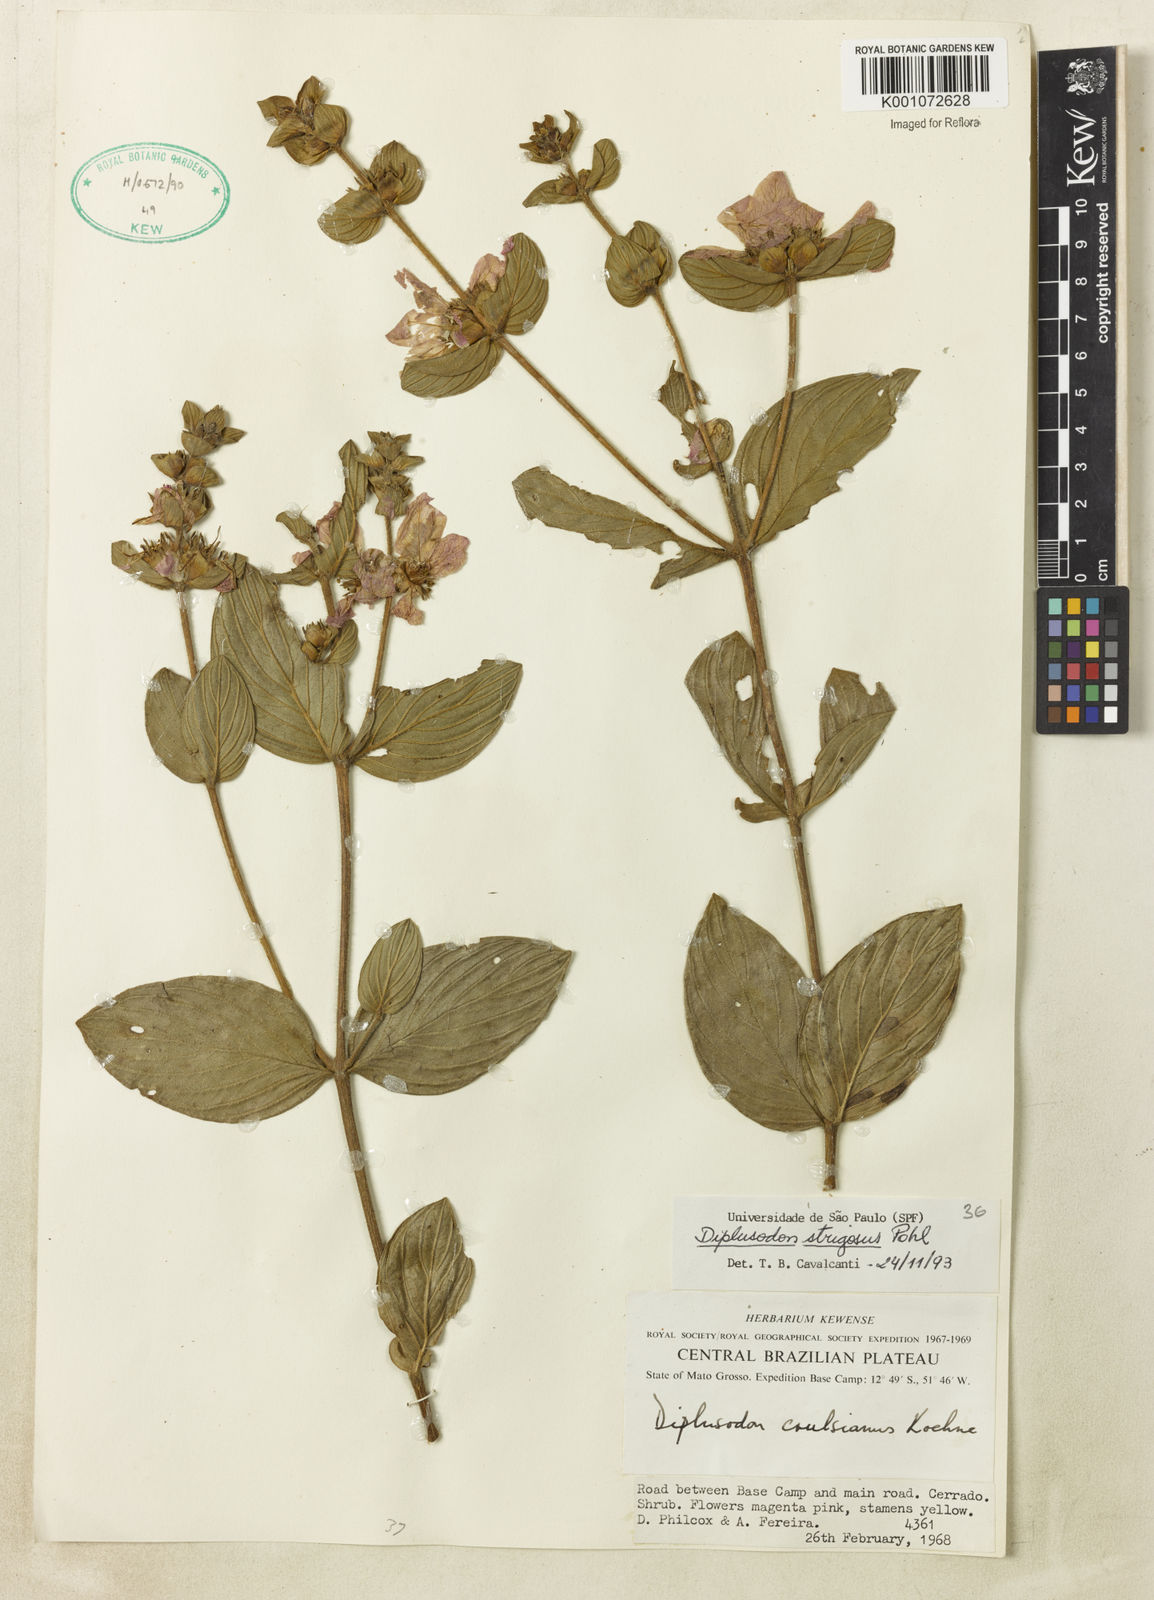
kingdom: Plantae
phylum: Tracheophyta
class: Magnoliopsida
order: Myrtales
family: Lythraceae
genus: Diplusodon
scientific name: Diplusodon strigosus
